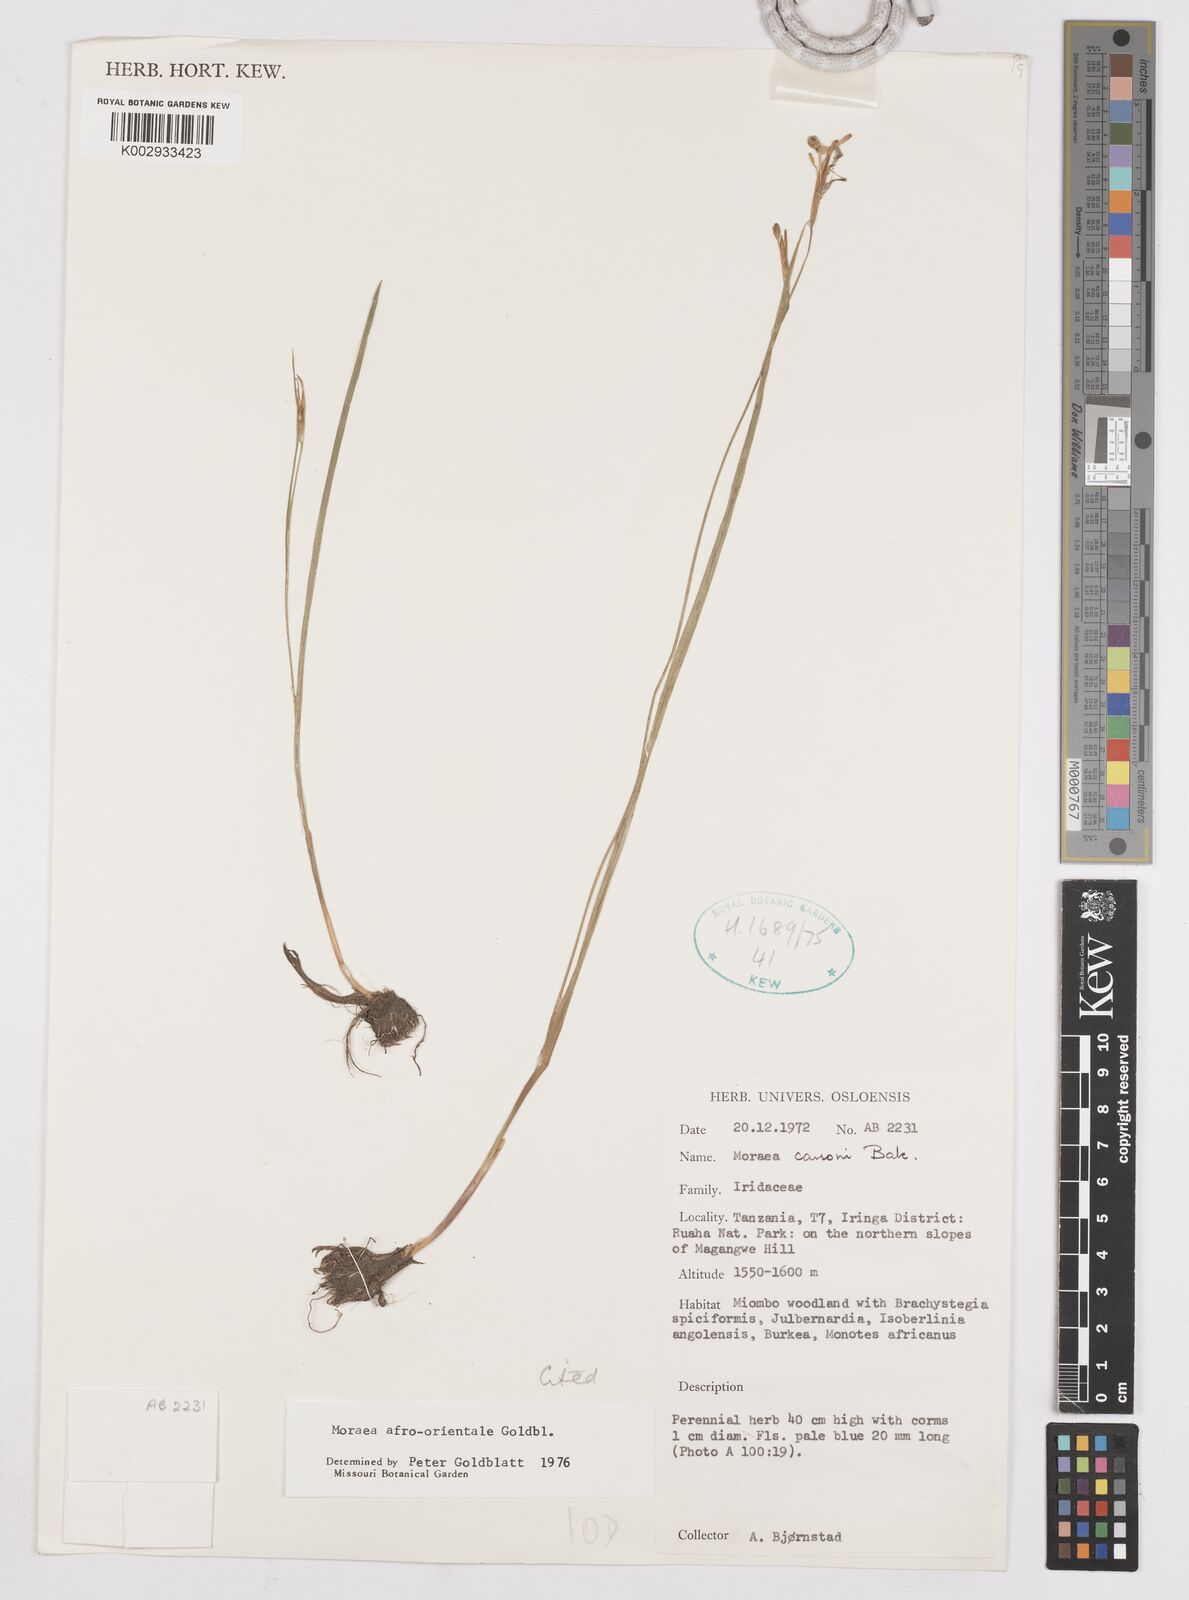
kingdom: Plantae
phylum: Tracheophyta
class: Liliopsida
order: Asparagales
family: Iridaceae
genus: Moraea
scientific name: Moraea afro-orientalis
